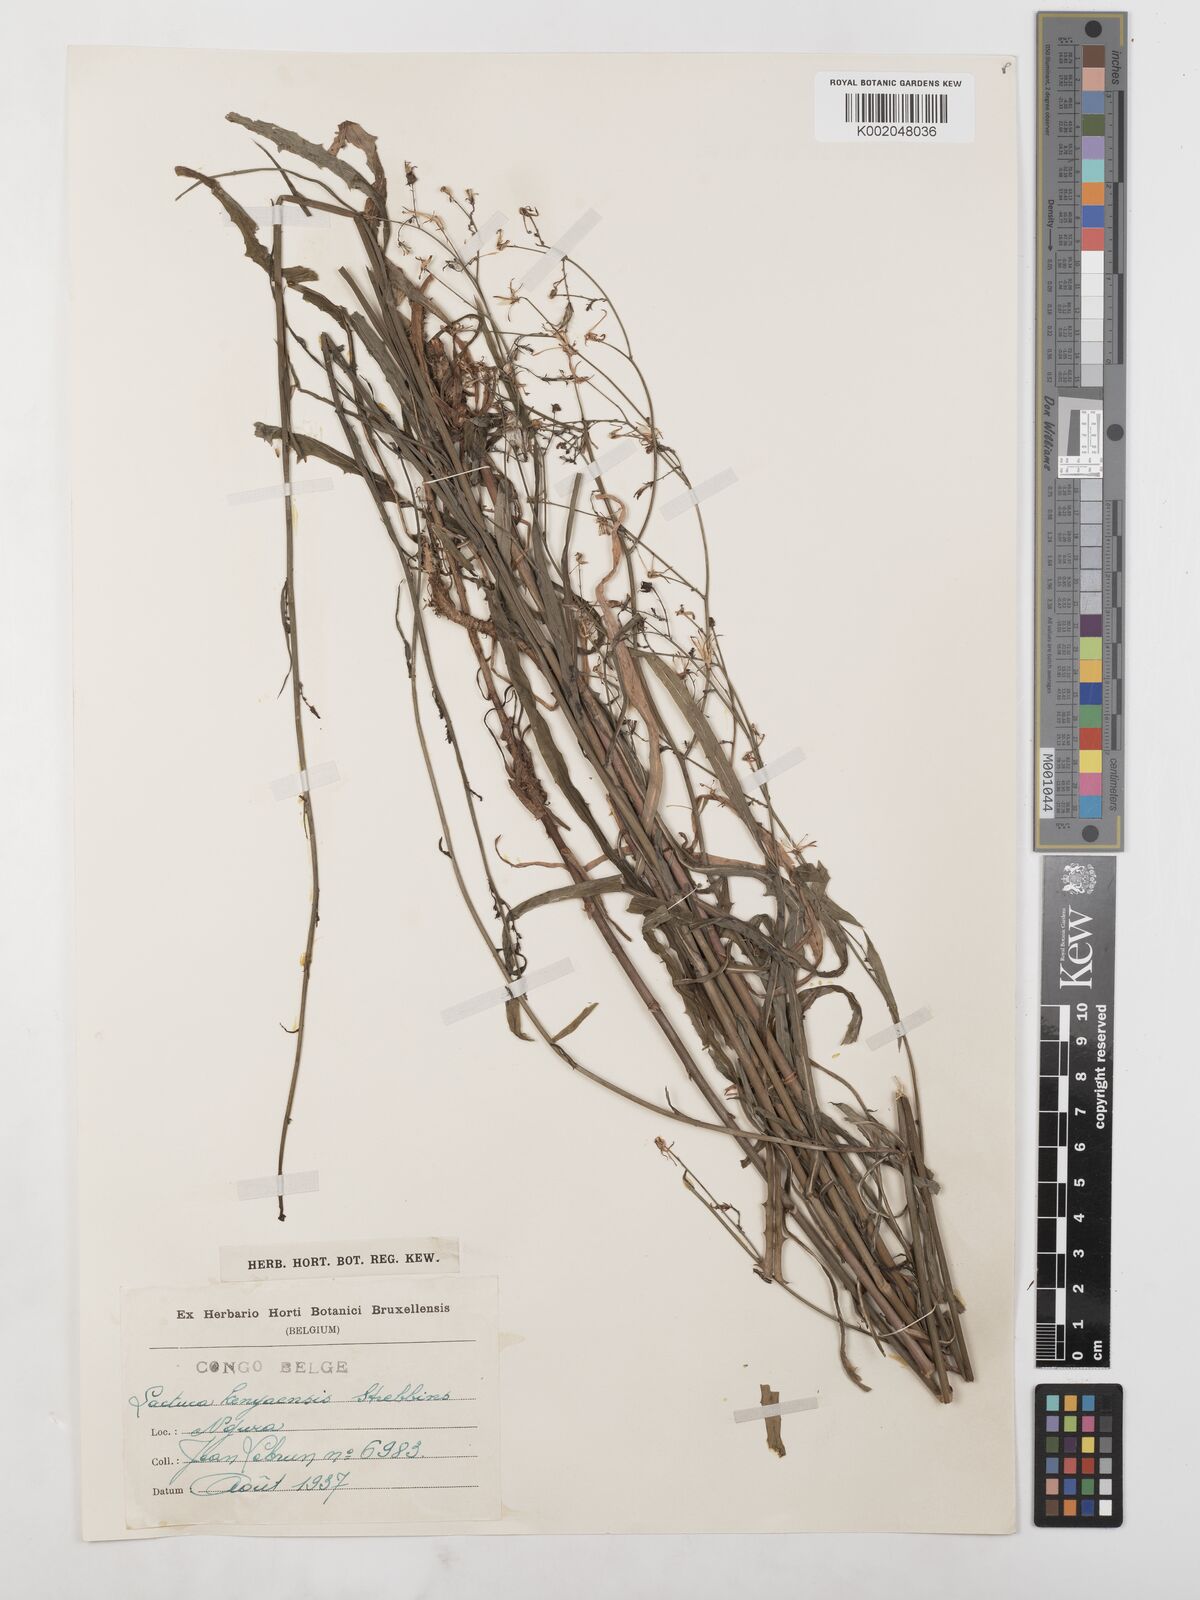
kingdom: Plantae
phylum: Tracheophyta
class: Magnoliopsida
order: Asterales
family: Asteraceae
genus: Lactuca
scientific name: Lactuca inermis
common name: Wild lettuce
